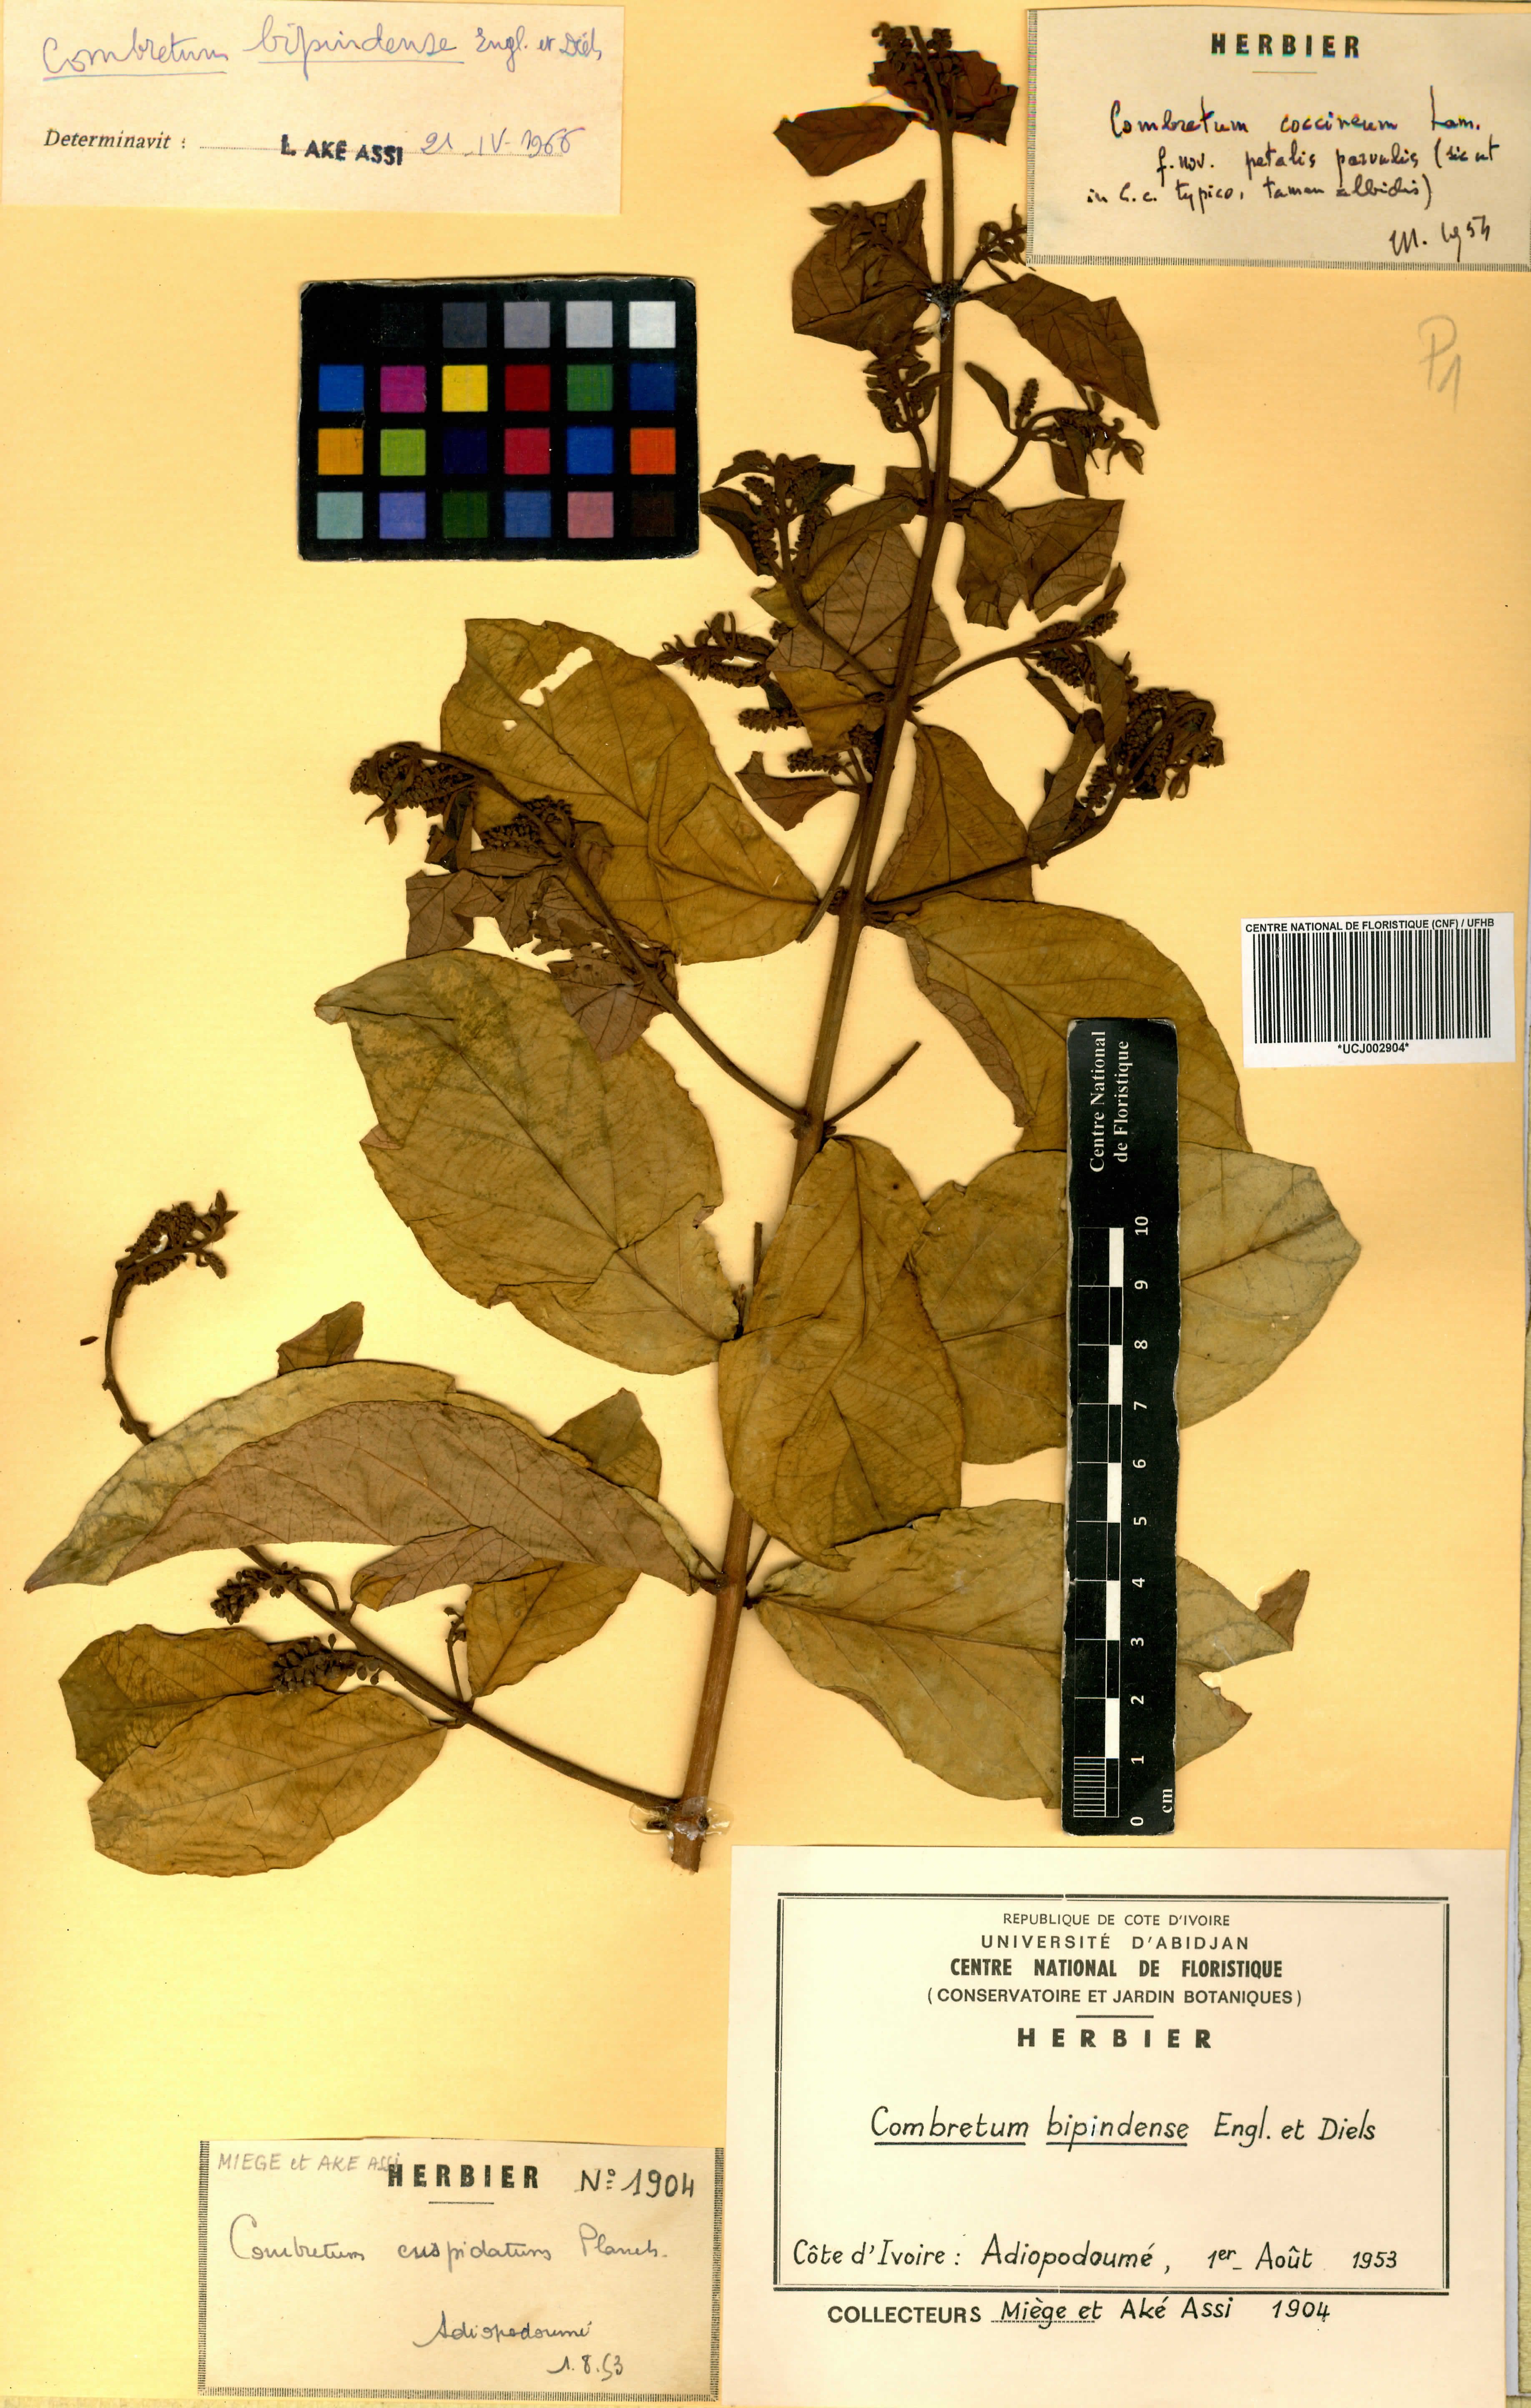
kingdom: Plantae
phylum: Tracheophyta
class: Magnoliopsida
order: Myrtales
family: Combretaceae
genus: Combretum
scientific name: Combretum bipindense
